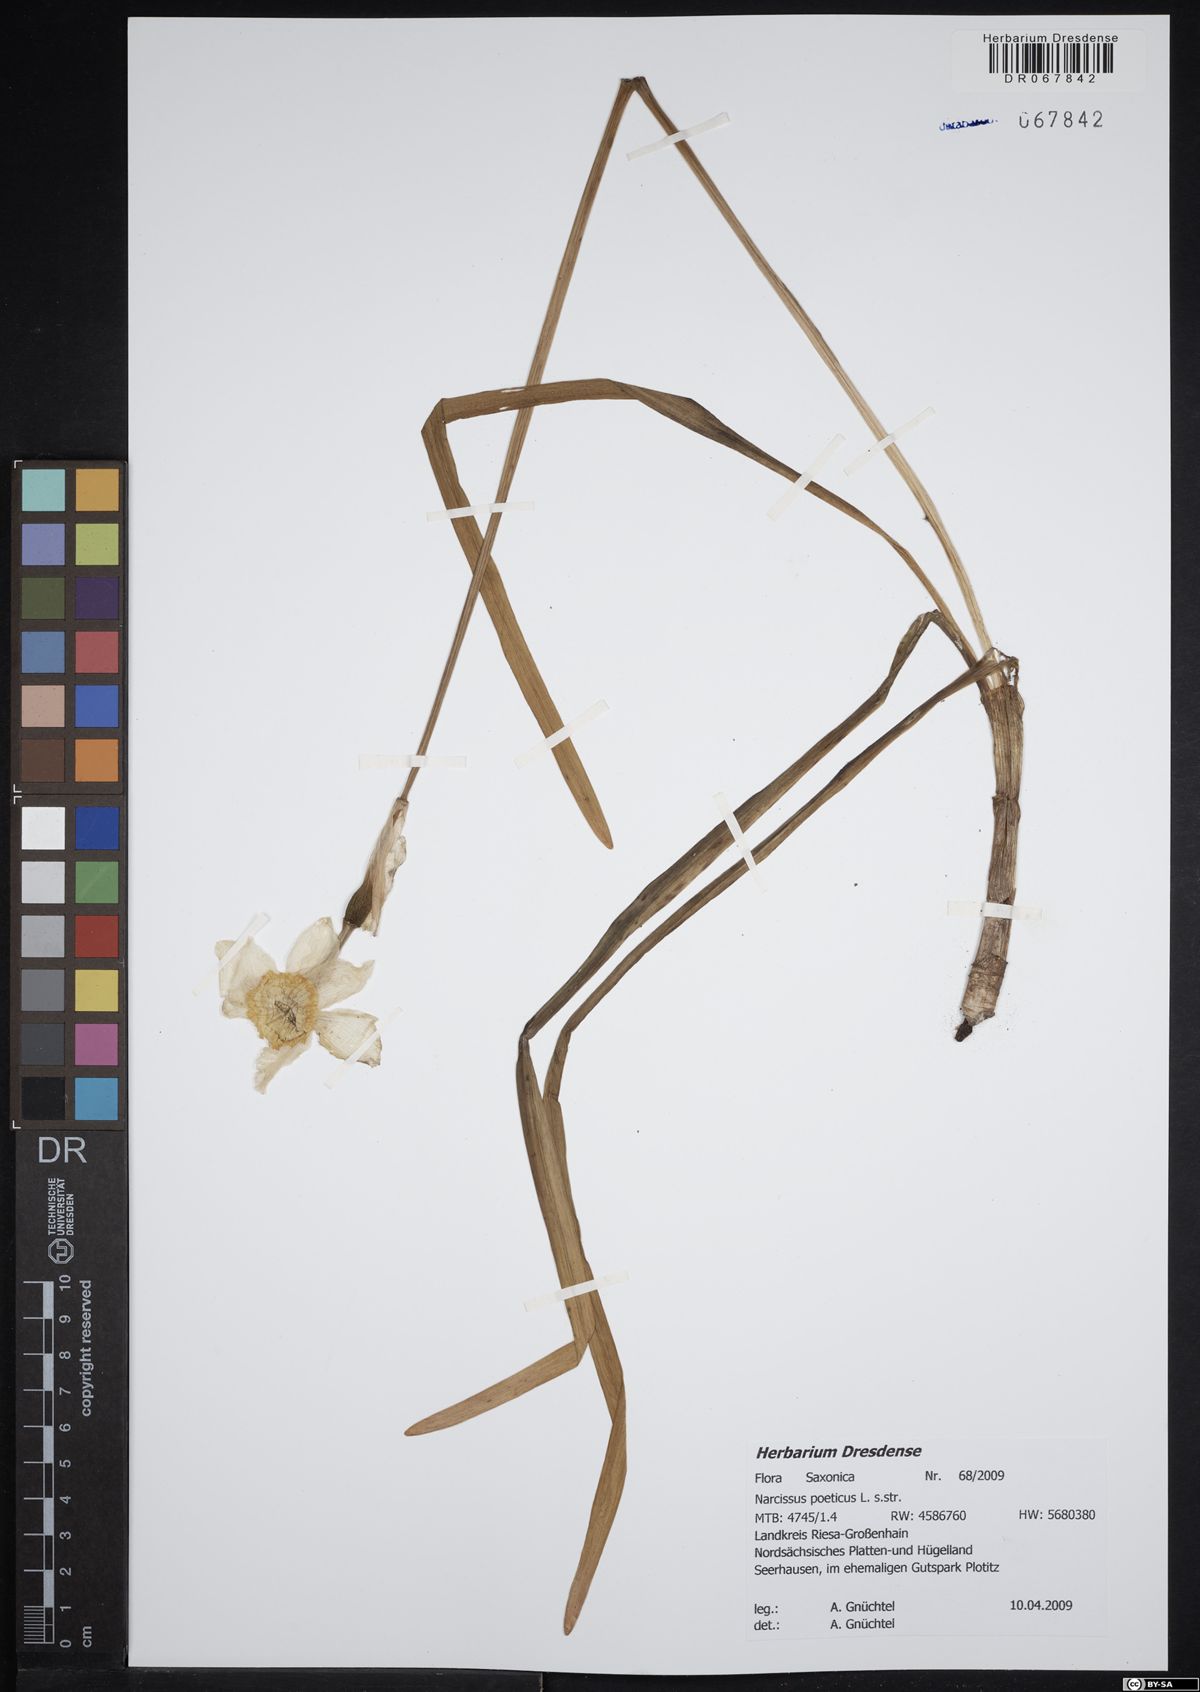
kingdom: Plantae
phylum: Tracheophyta
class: Liliopsida
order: Asparagales
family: Amaryllidaceae
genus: Narcissus
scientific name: Narcissus poeticus
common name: Pheasant's-eye daffodil
